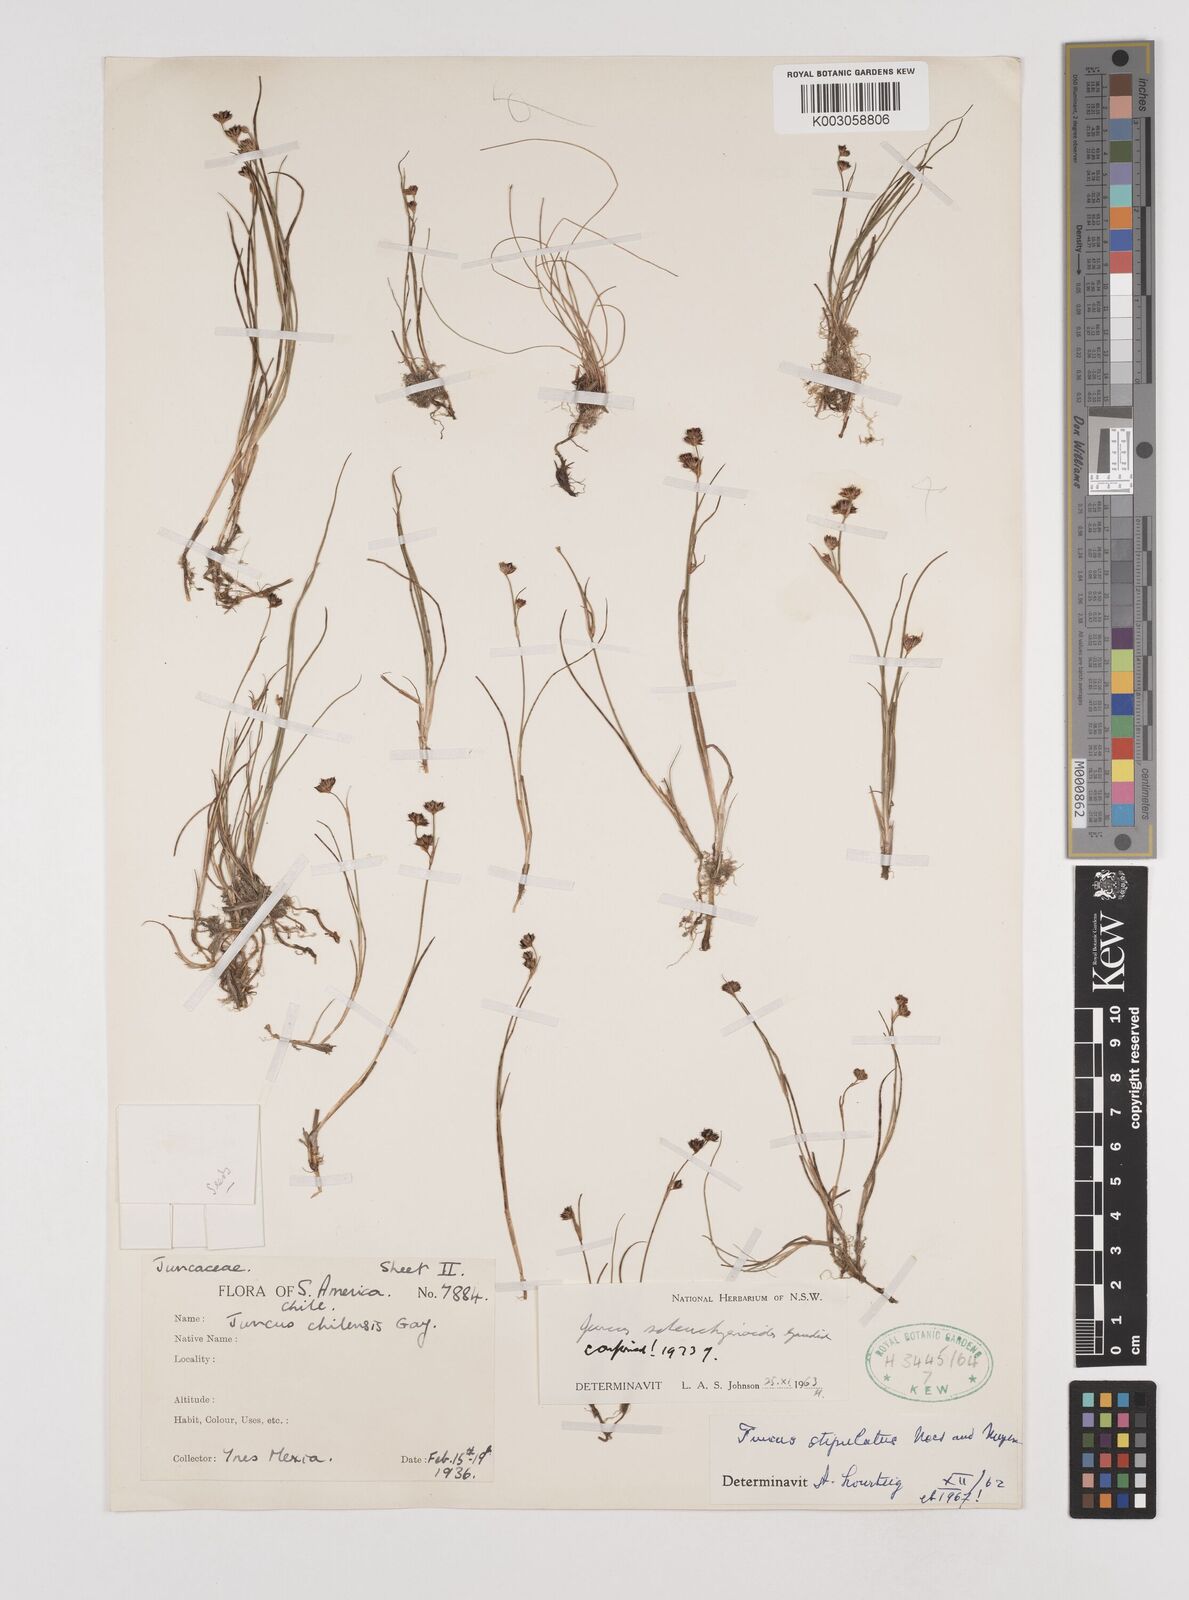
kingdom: Plantae
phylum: Tracheophyta
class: Liliopsida
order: Poales
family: Juncaceae
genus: Juncus
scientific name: Juncus scheuchzerioides
